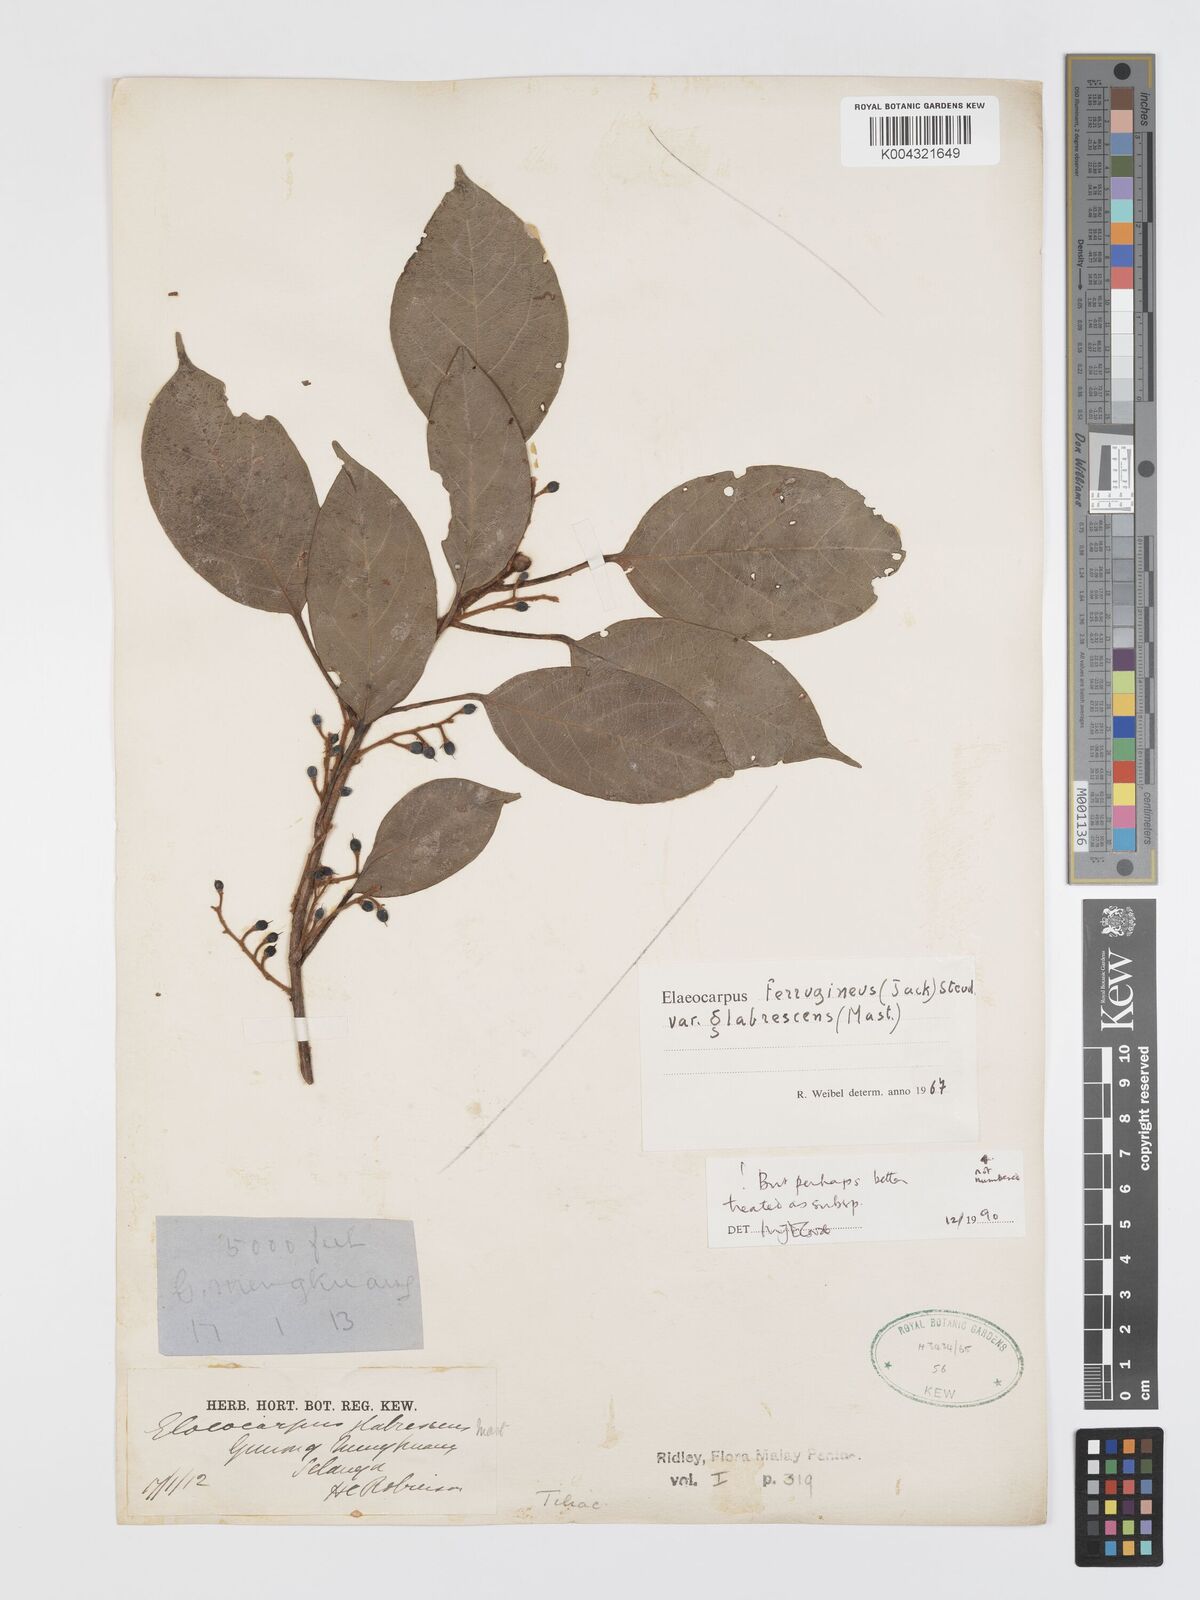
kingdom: Plantae
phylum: Tracheophyta
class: Magnoliopsida
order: Oxalidales
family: Elaeocarpaceae
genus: Elaeocarpus
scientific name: Elaeocarpus ferrugineus
